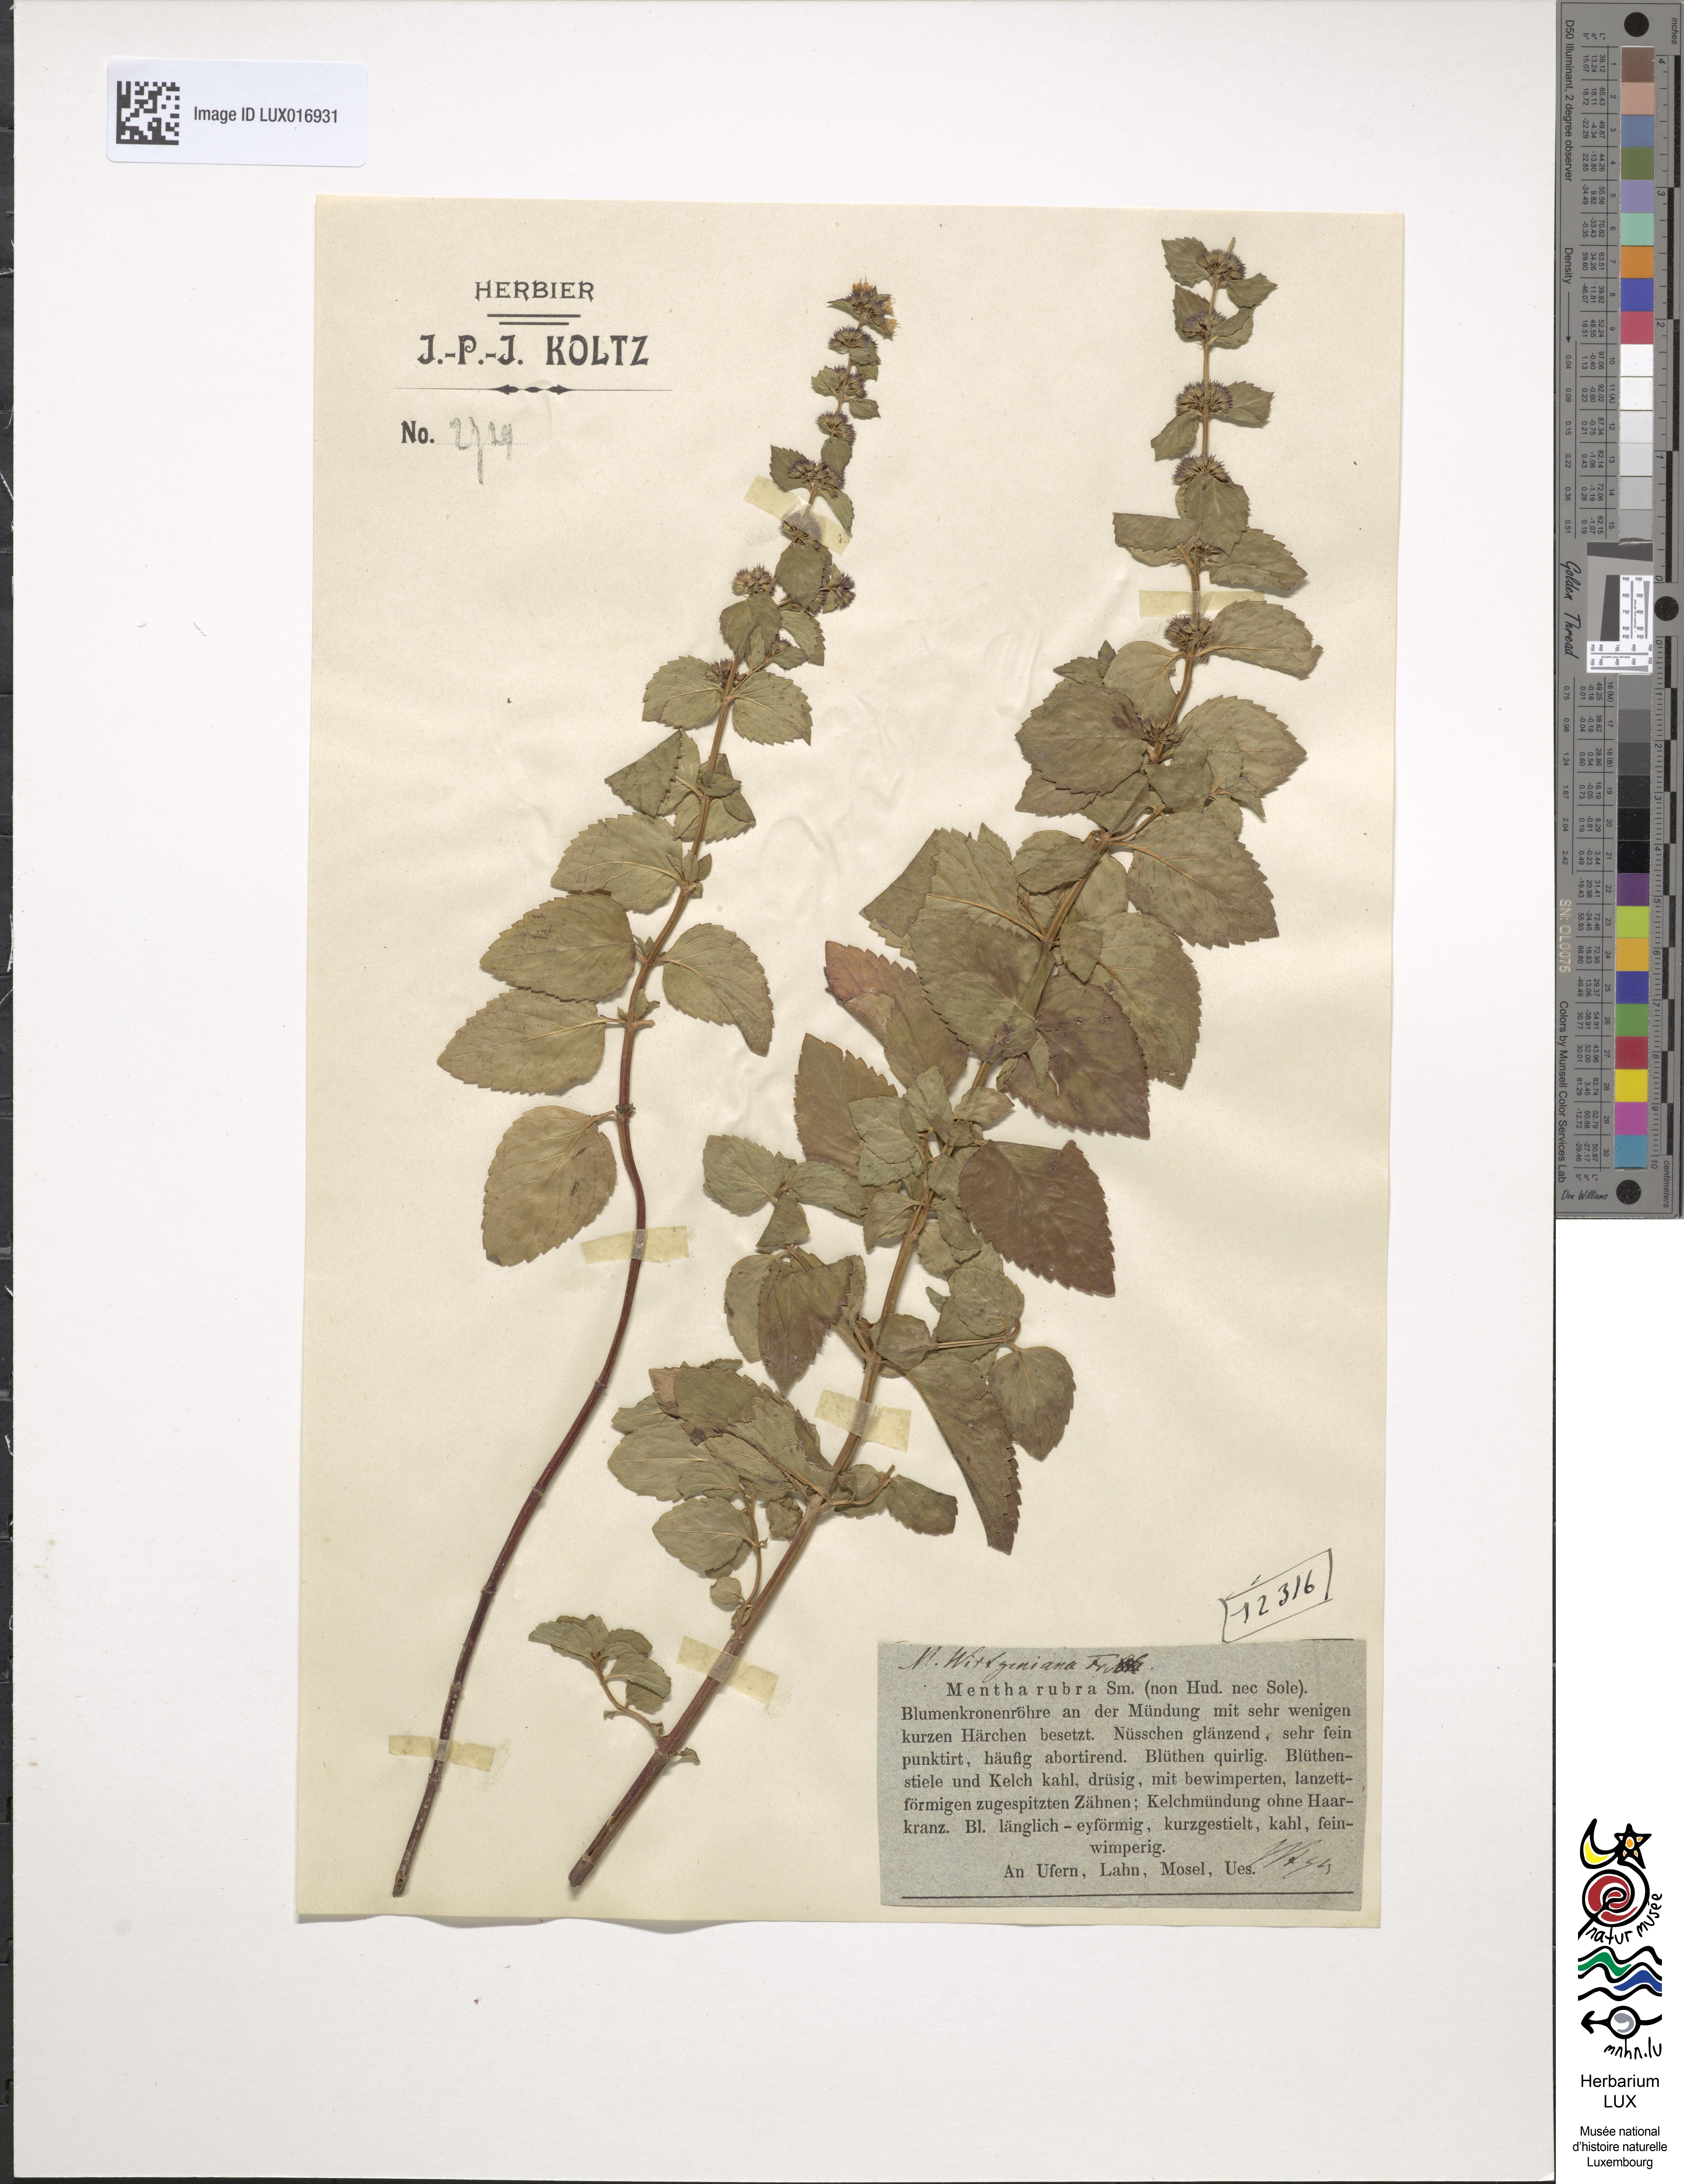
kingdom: Plantae
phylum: Tracheophyta
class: Magnoliopsida
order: Lamiales
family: Lamiaceae
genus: Mentha
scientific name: Mentha wirtgeniana
